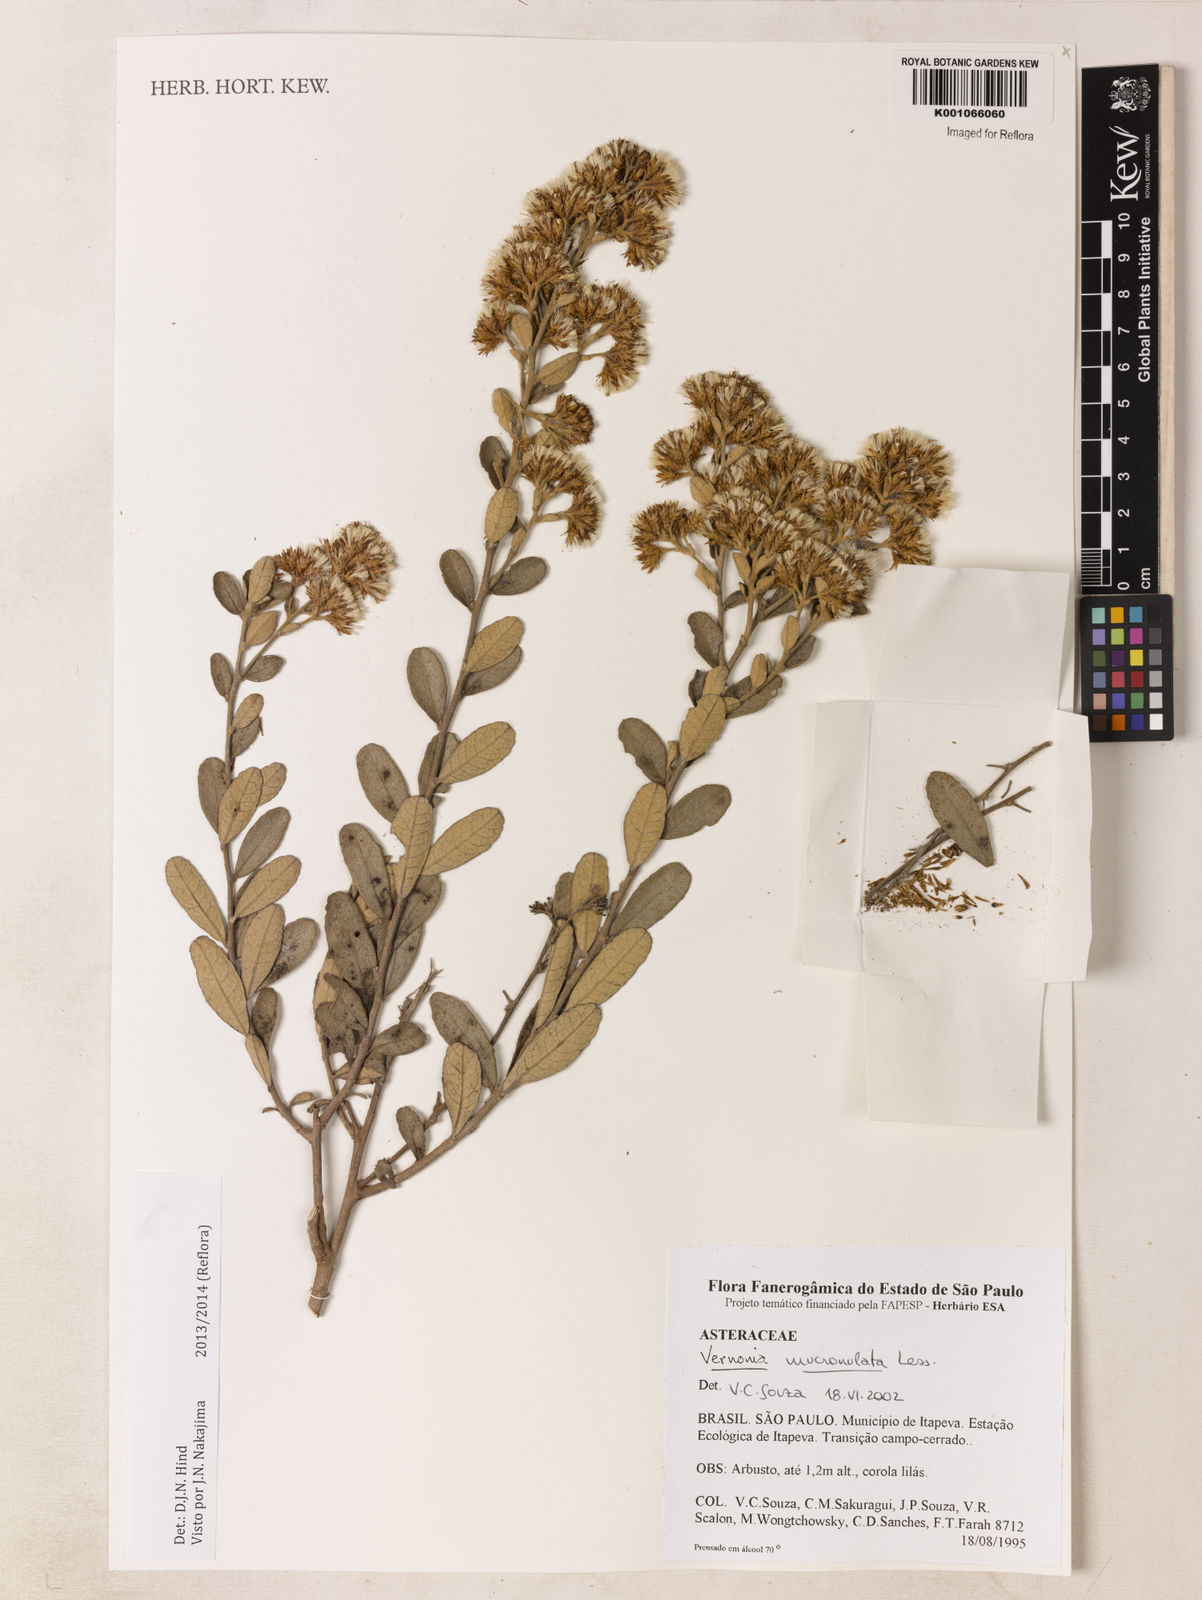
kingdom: Plantae
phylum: Tracheophyta
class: Magnoliopsida
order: Asterales
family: Asteraceae
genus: Vernonanthura
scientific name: Vernonanthura mucronulata
